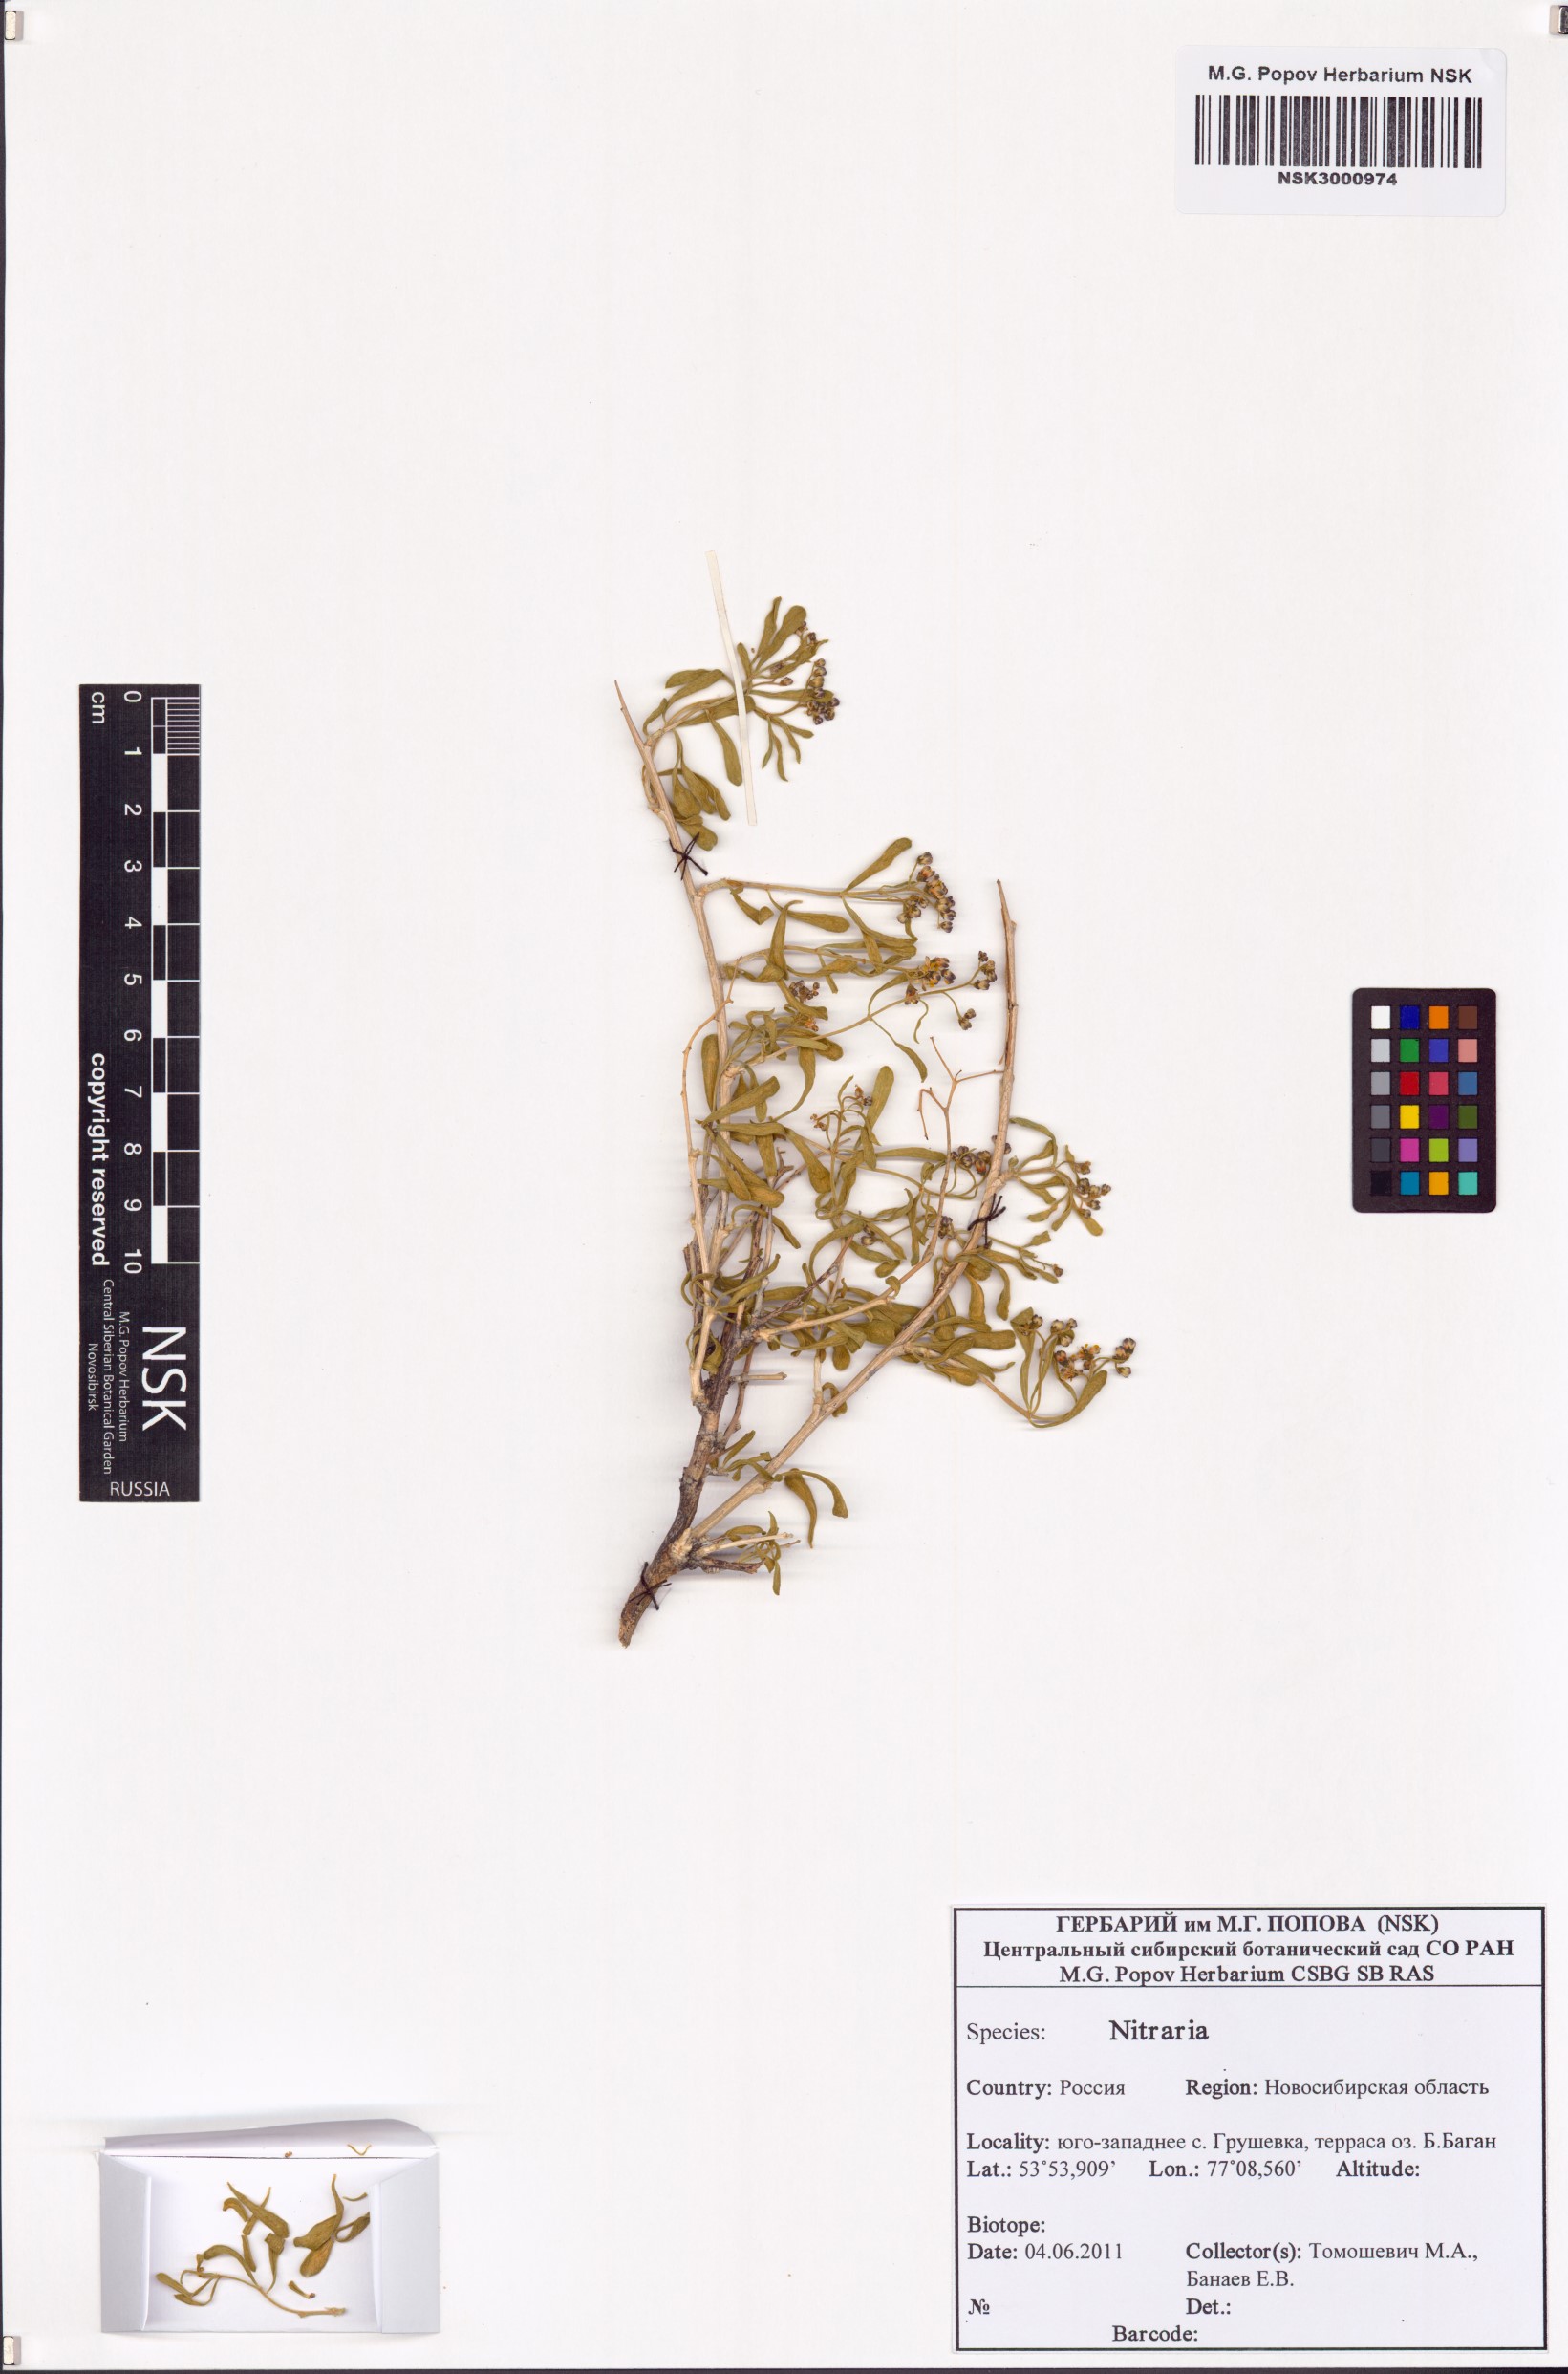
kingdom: Plantae
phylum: Tracheophyta
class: Magnoliopsida
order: Sapindales
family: Nitrariaceae
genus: Nitraria
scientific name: Nitraria
